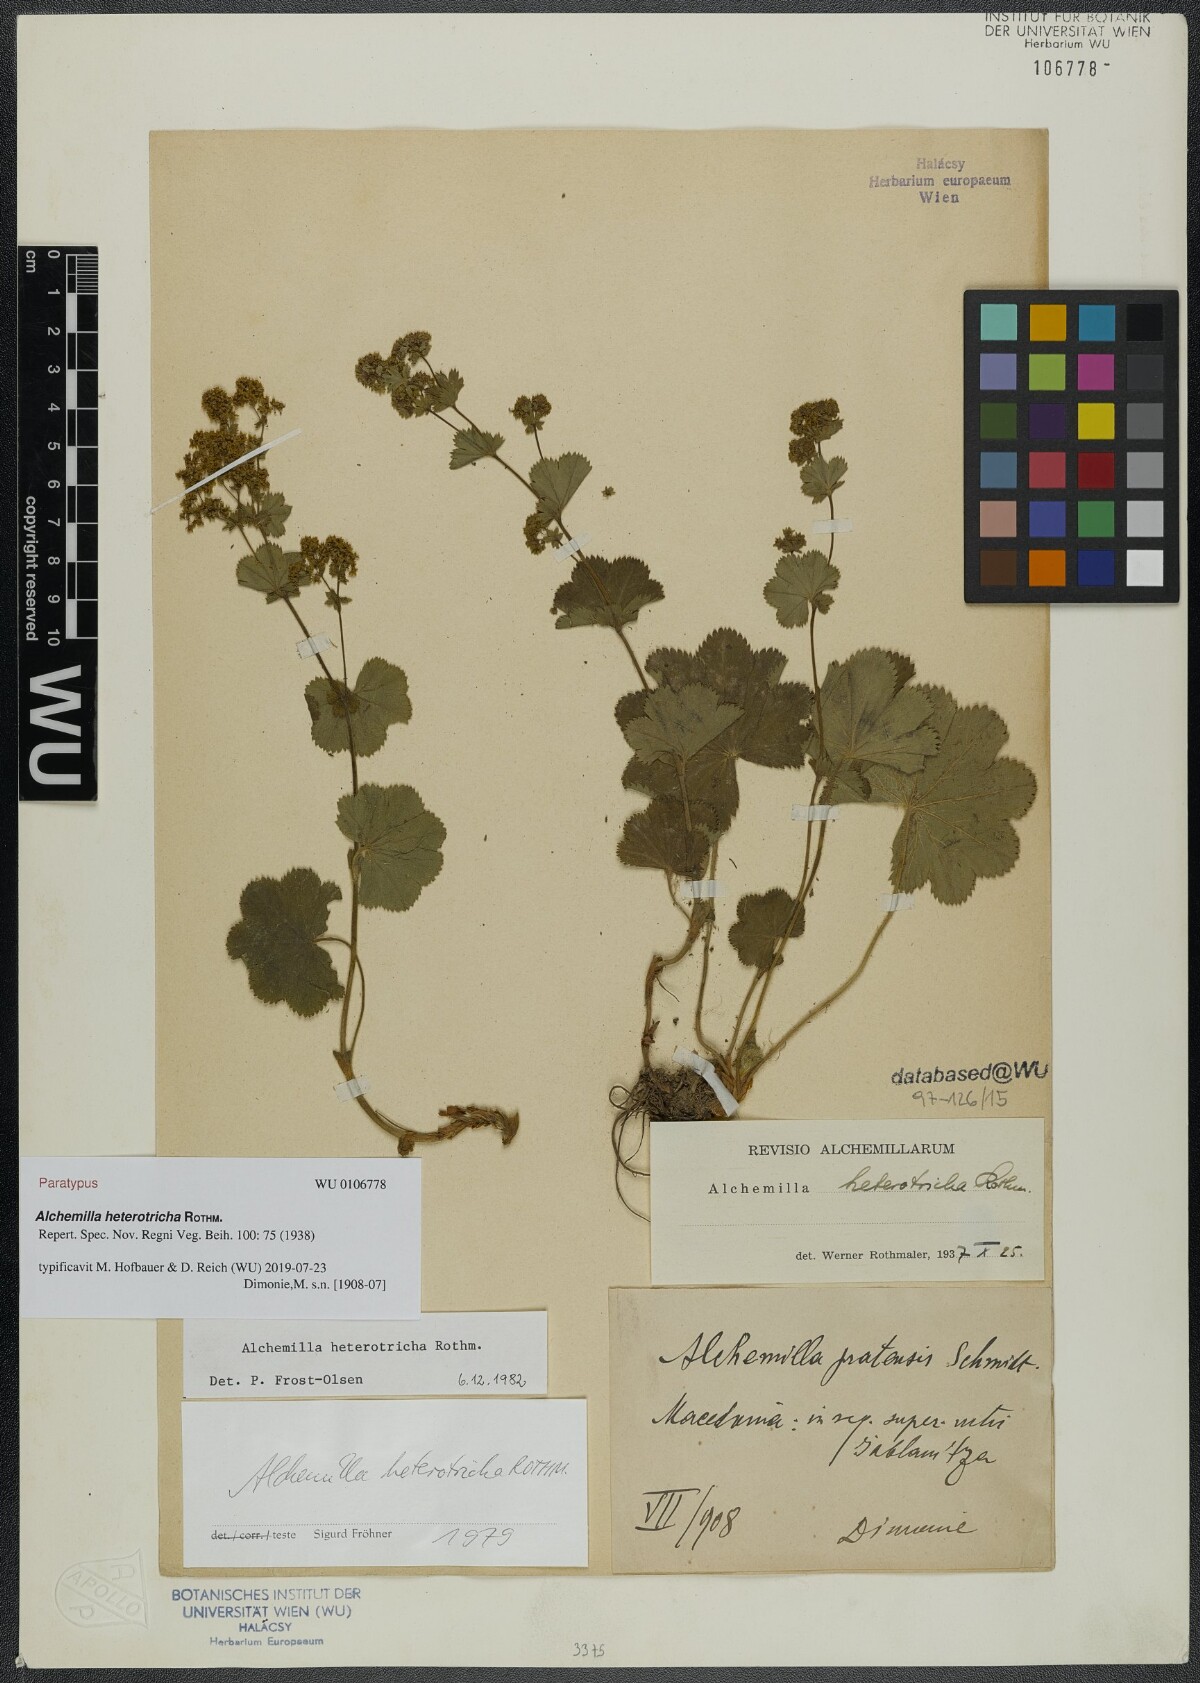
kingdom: Plantae
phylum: Tracheophyta
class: Magnoliopsida
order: Rosales
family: Rosaceae
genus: Alchemilla
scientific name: Alchemilla heterotricha
